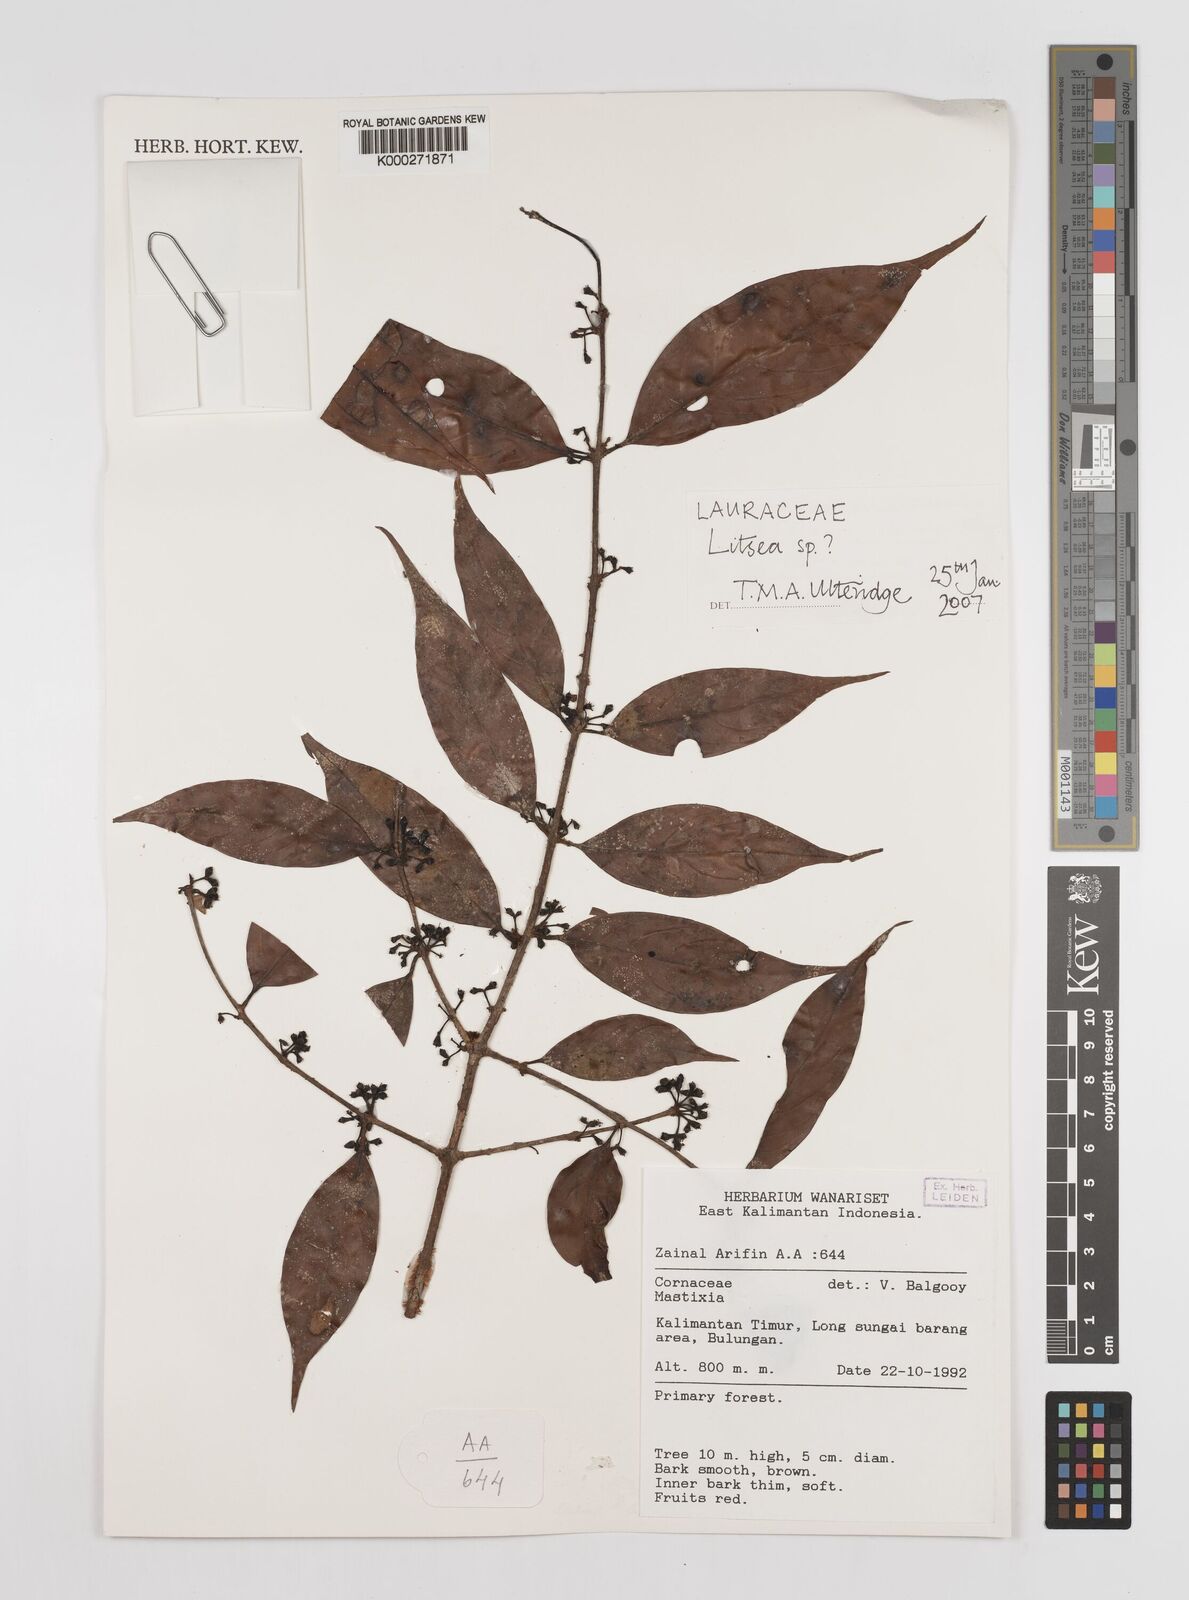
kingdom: Plantae
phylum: Tracheophyta
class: Magnoliopsida
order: Laurales
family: Lauraceae
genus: Litsea
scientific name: Litsea
